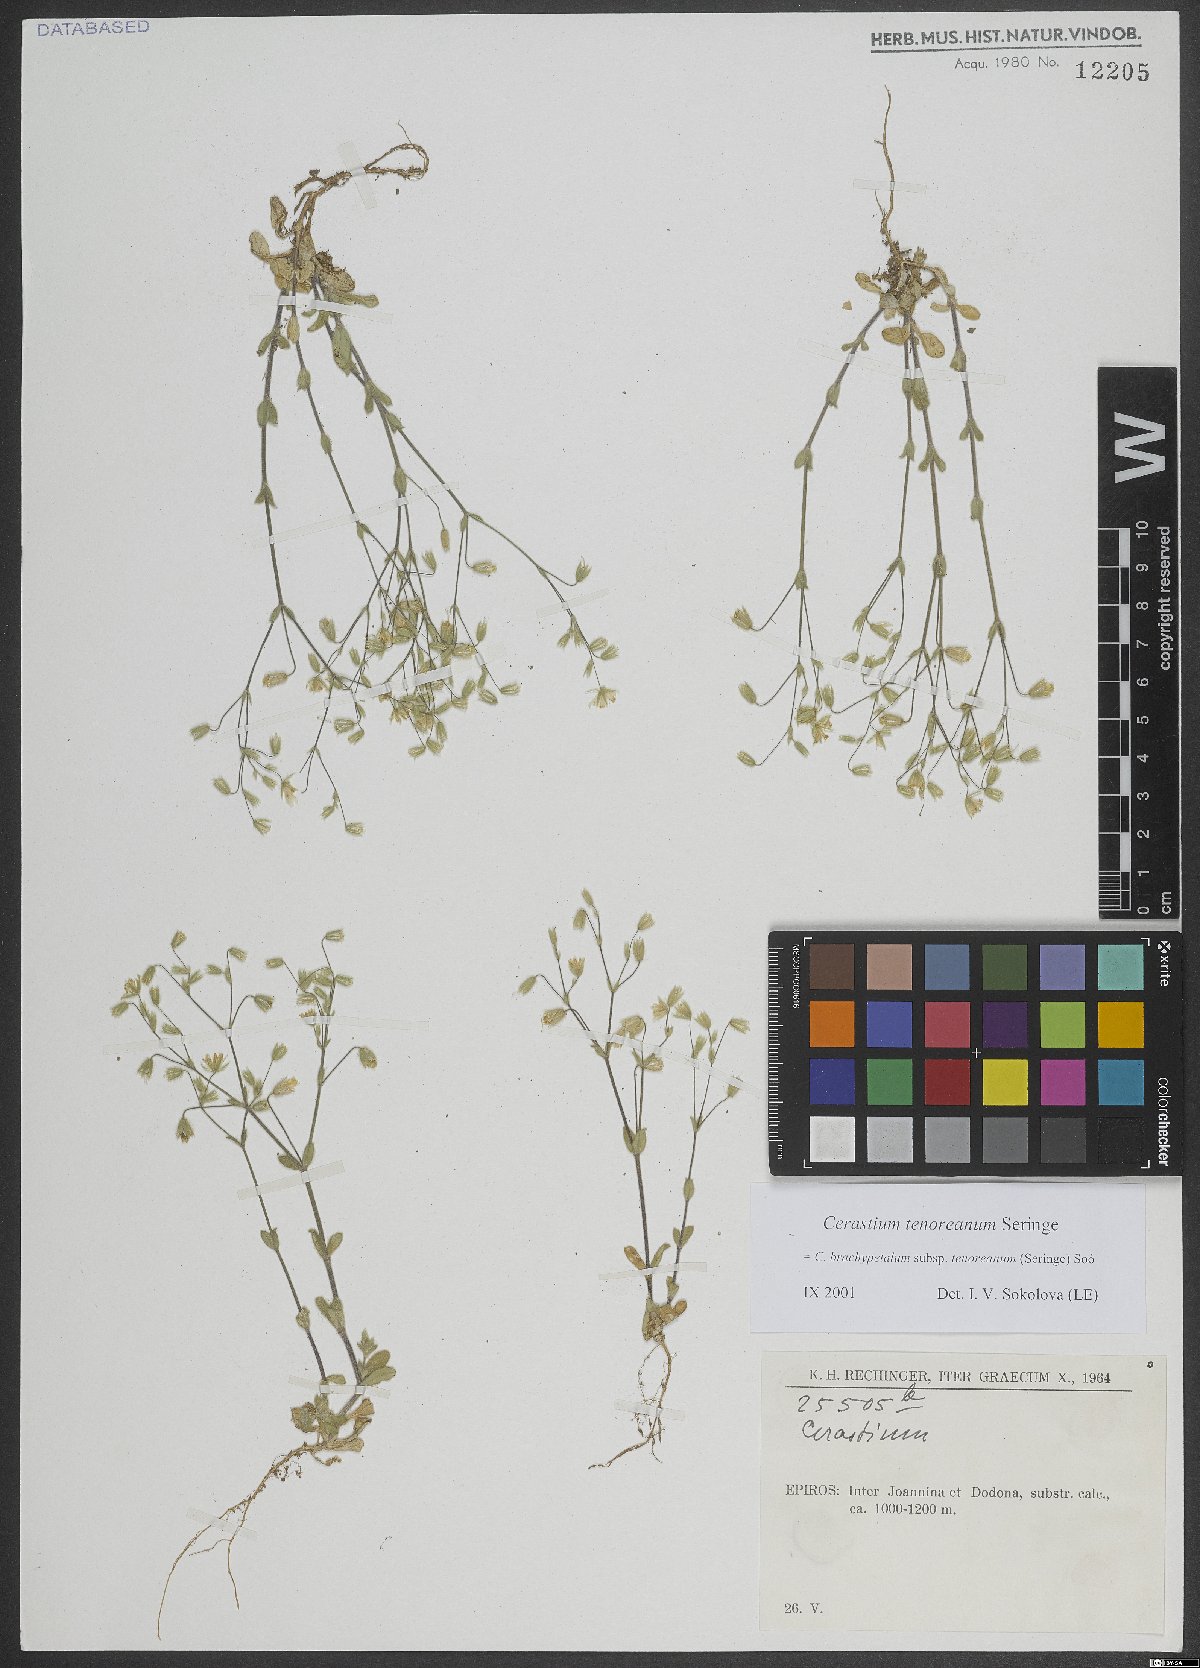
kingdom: Plantae
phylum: Tracheophyta
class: Magnoliopsida
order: Caryophyllales
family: Caryophyllaceae
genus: Cerastium
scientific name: Cerastium tenoreanum
